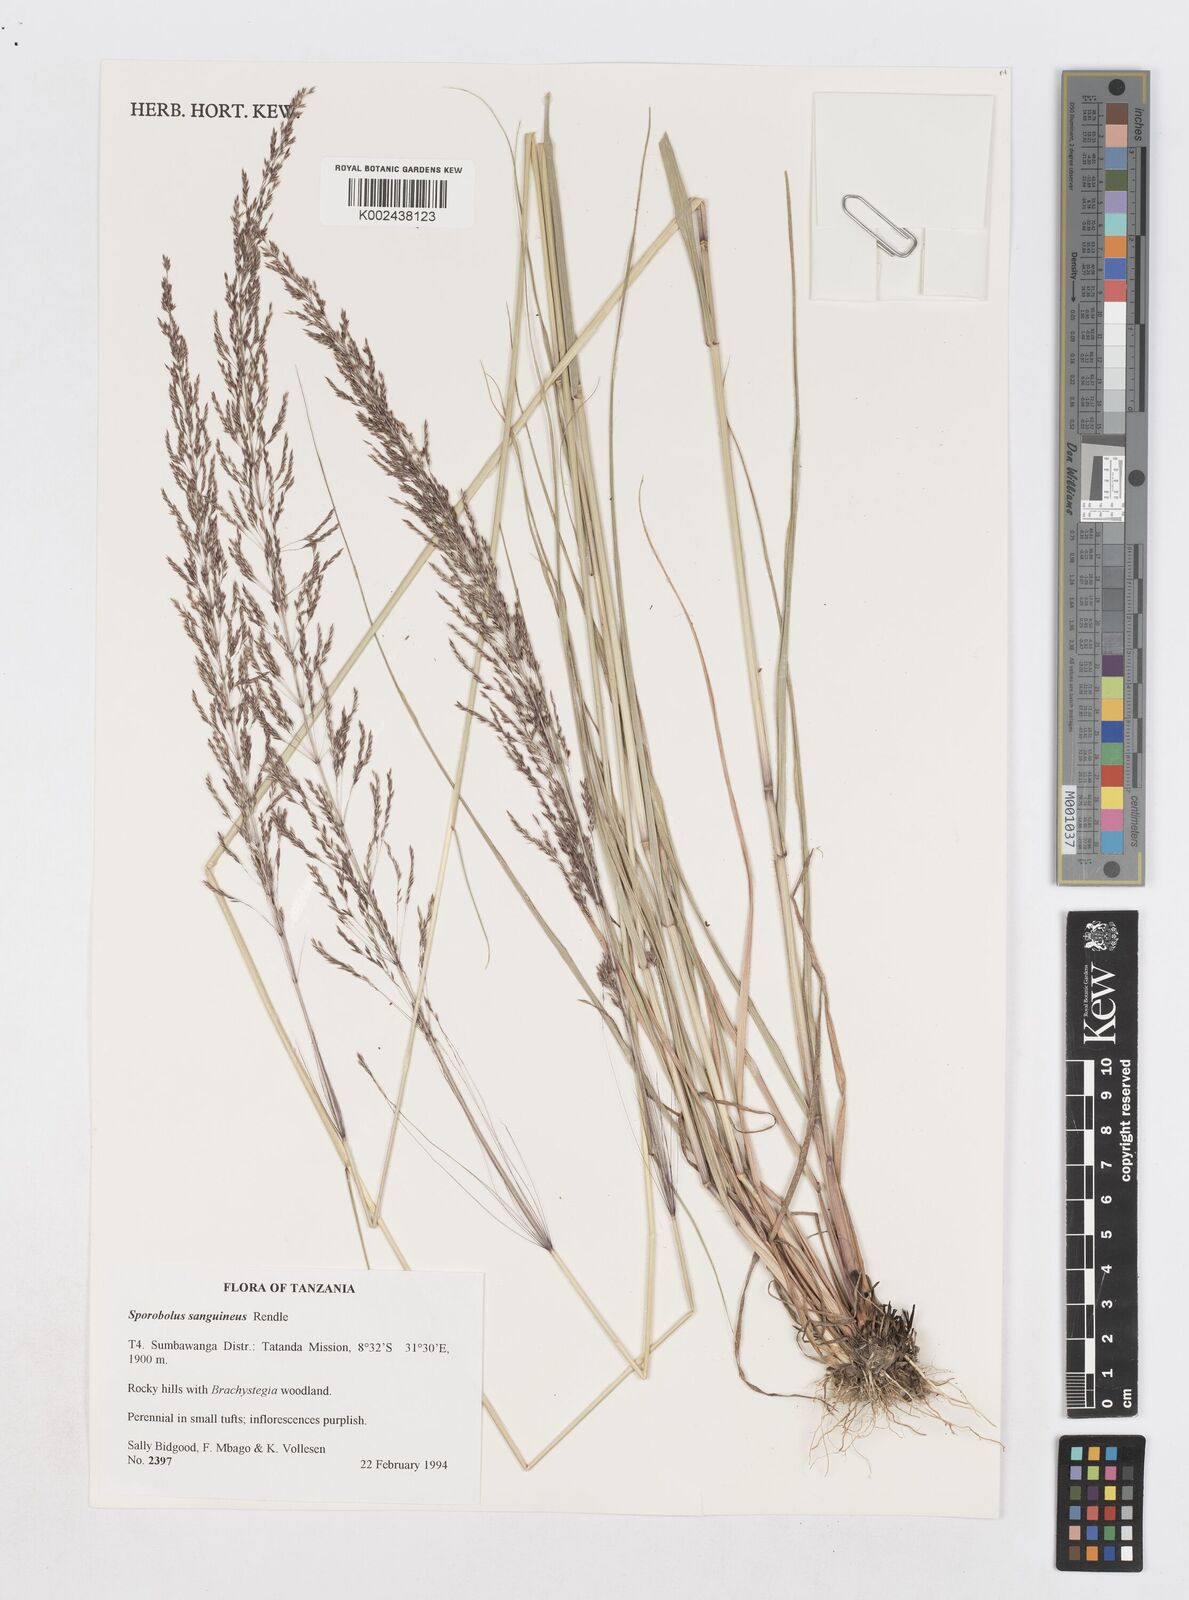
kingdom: Plantae
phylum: Tracheophyta
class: Liliopsida
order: Poales
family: Poaceae
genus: Sporobolus
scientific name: Sporobolus sanguineus
